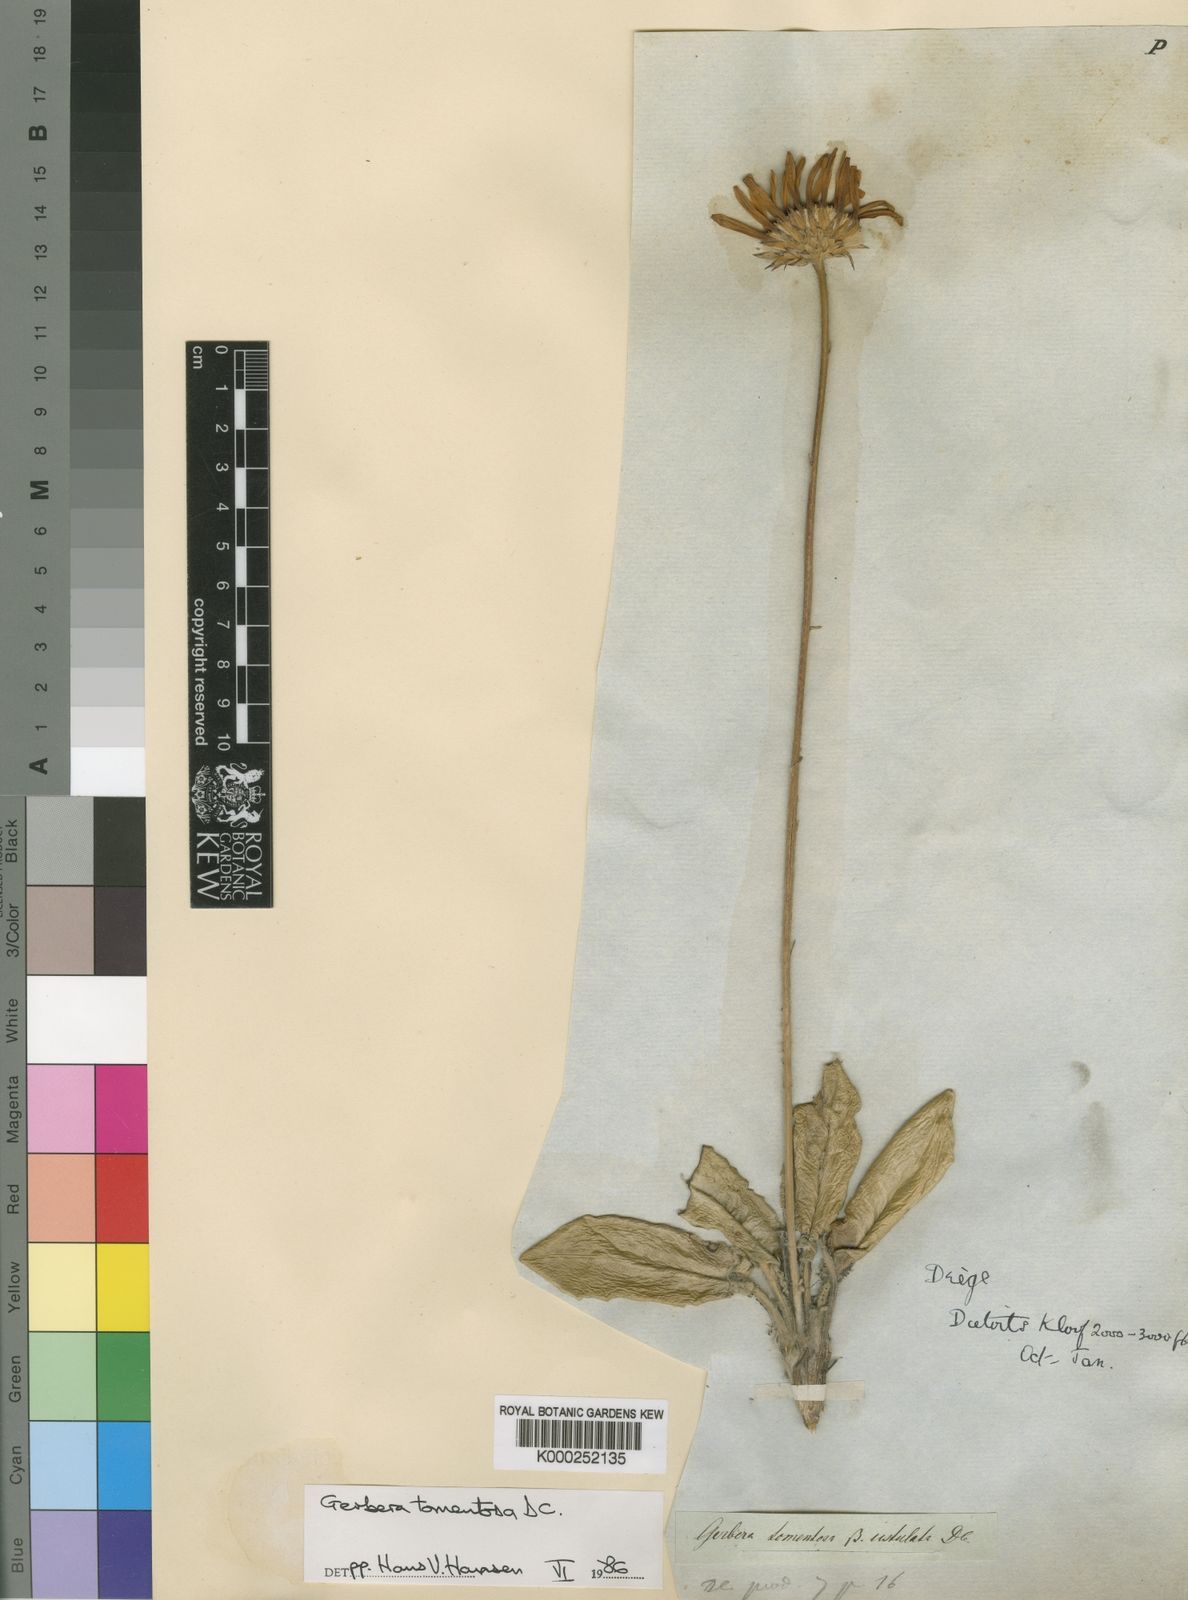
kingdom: Plantae
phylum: Tracheophyta
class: Magnoliopsida
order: Asterales
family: Asteraceae
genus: Gerbera
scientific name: Gerbera tomentosa
